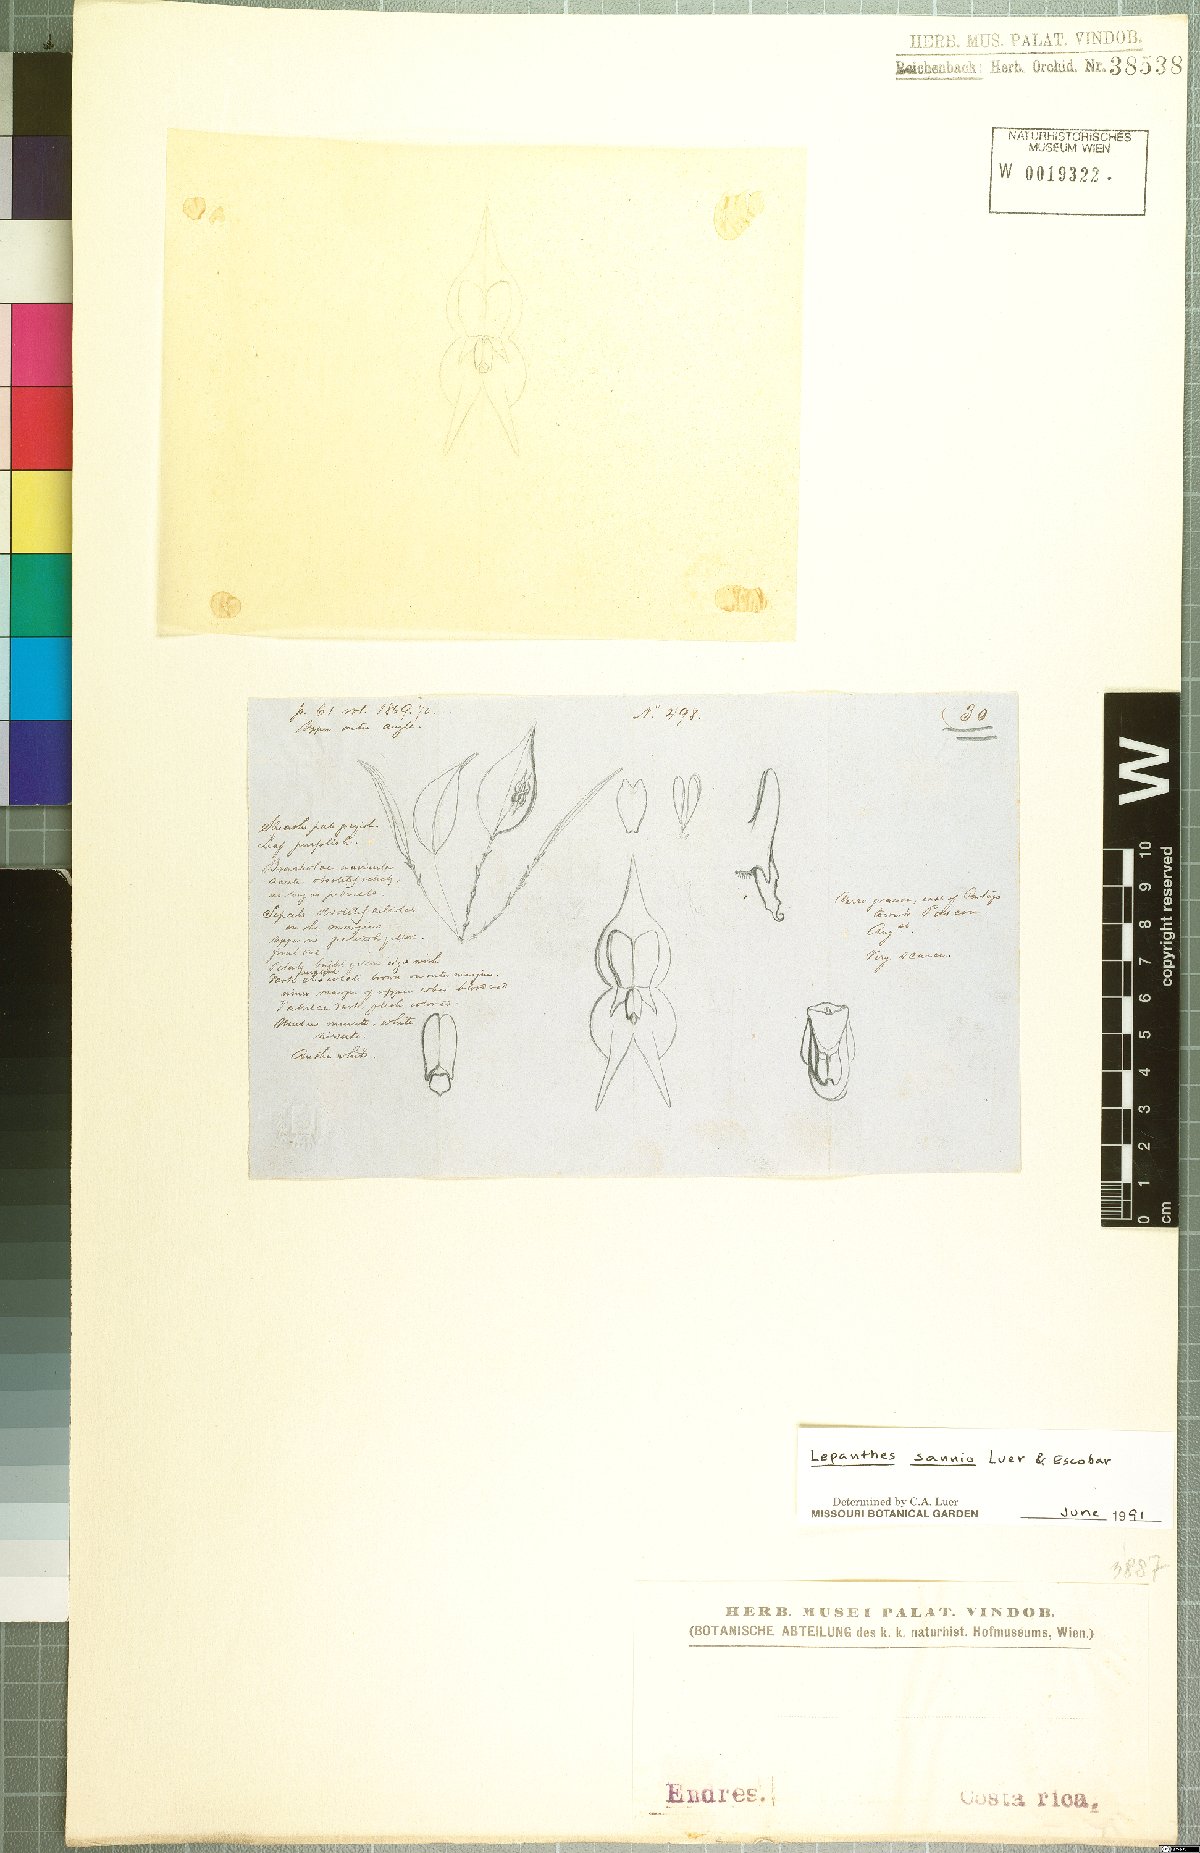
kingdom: Plantae
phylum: Tracheophyta
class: Liliopsida
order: Asparagales
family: Orchidaceae
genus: Lepanthes
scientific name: Lepanthes sannio
